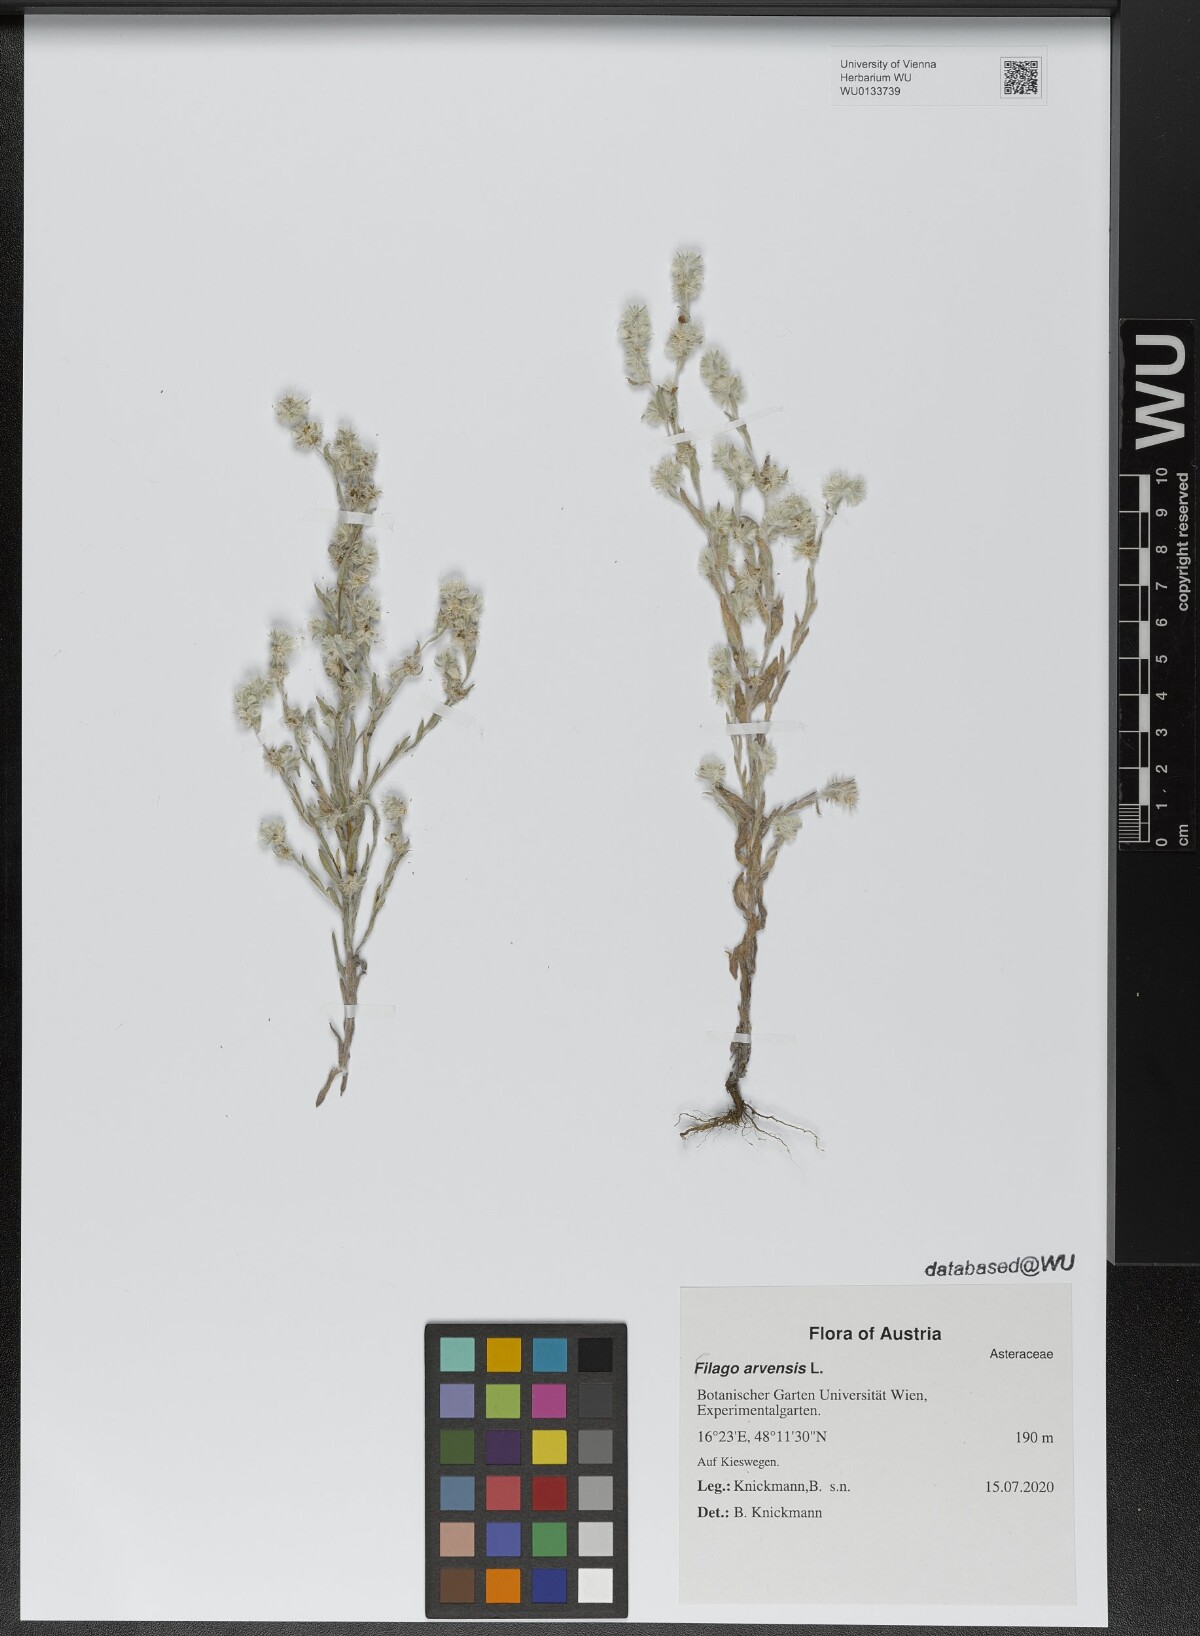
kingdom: Plantae
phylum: Tracheophyta
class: Magnoliopsida
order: Asterales
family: Asteraceae
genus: Filago
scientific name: Filago arvensis
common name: Field cudweed
